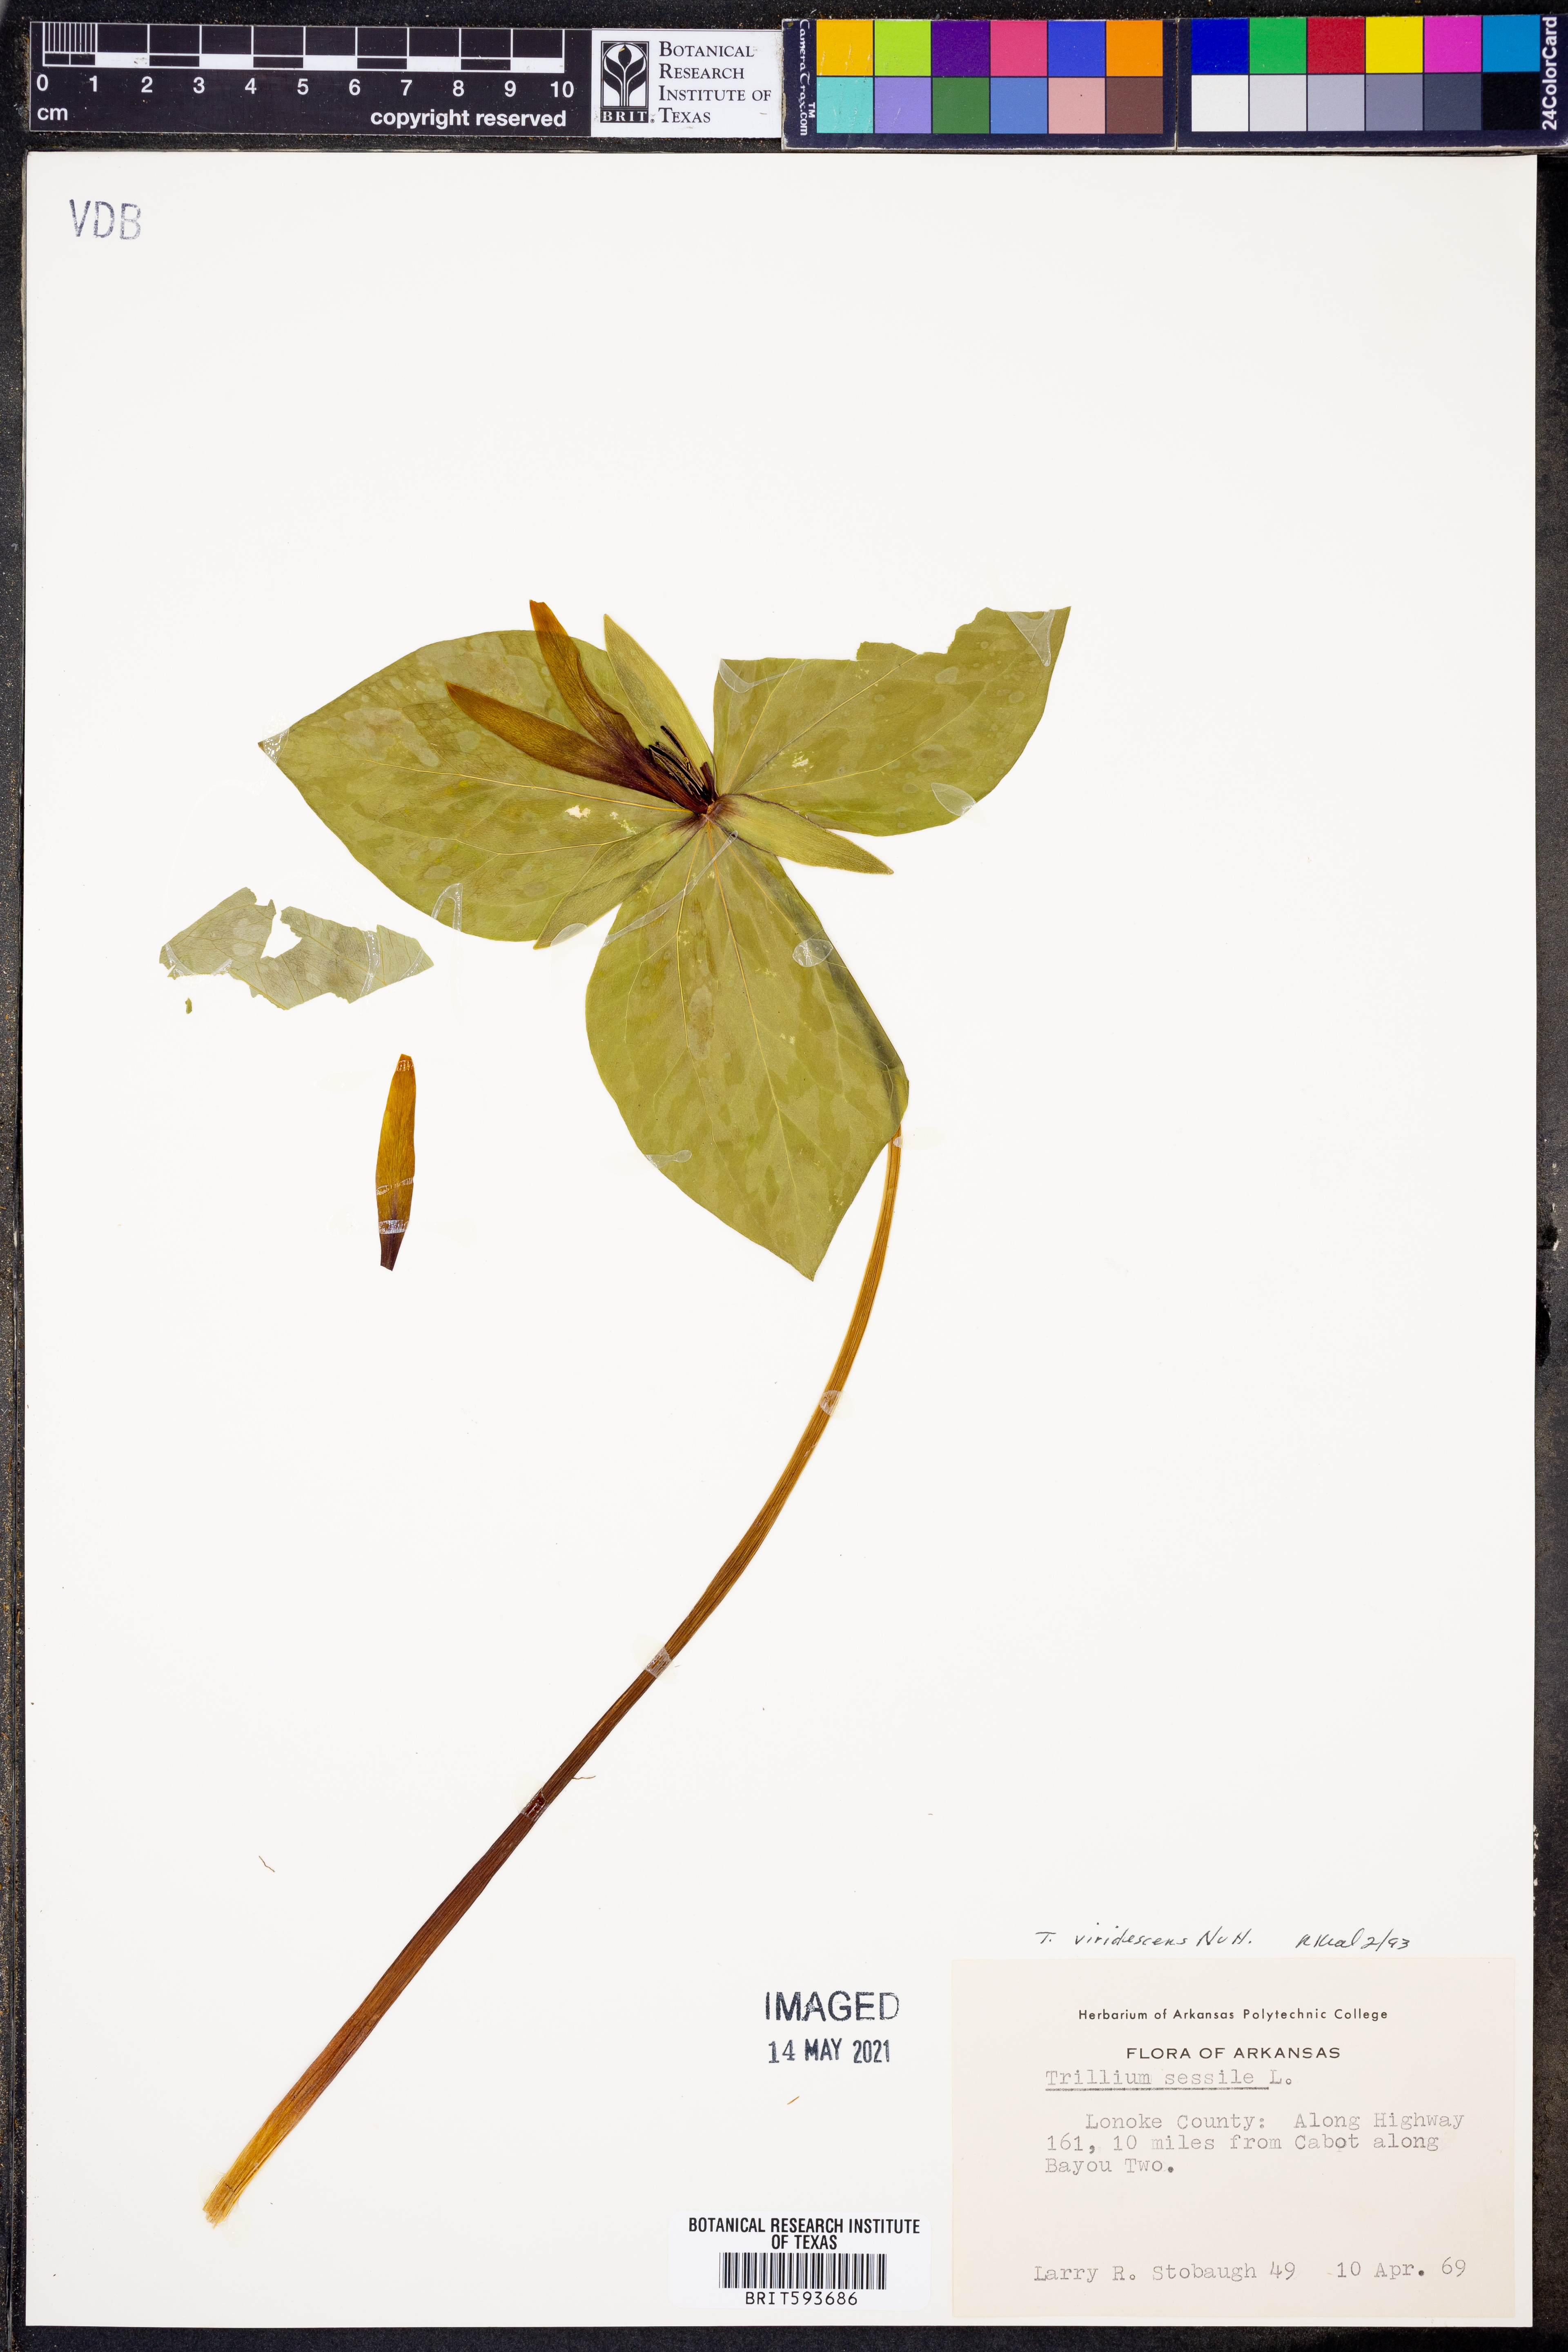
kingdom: Plantae
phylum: Tracheophyta
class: Liliopsida
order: Liliales
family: Melanthiaceae
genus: Trillium
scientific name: Trillium viridescens
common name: Ozark green trillium
